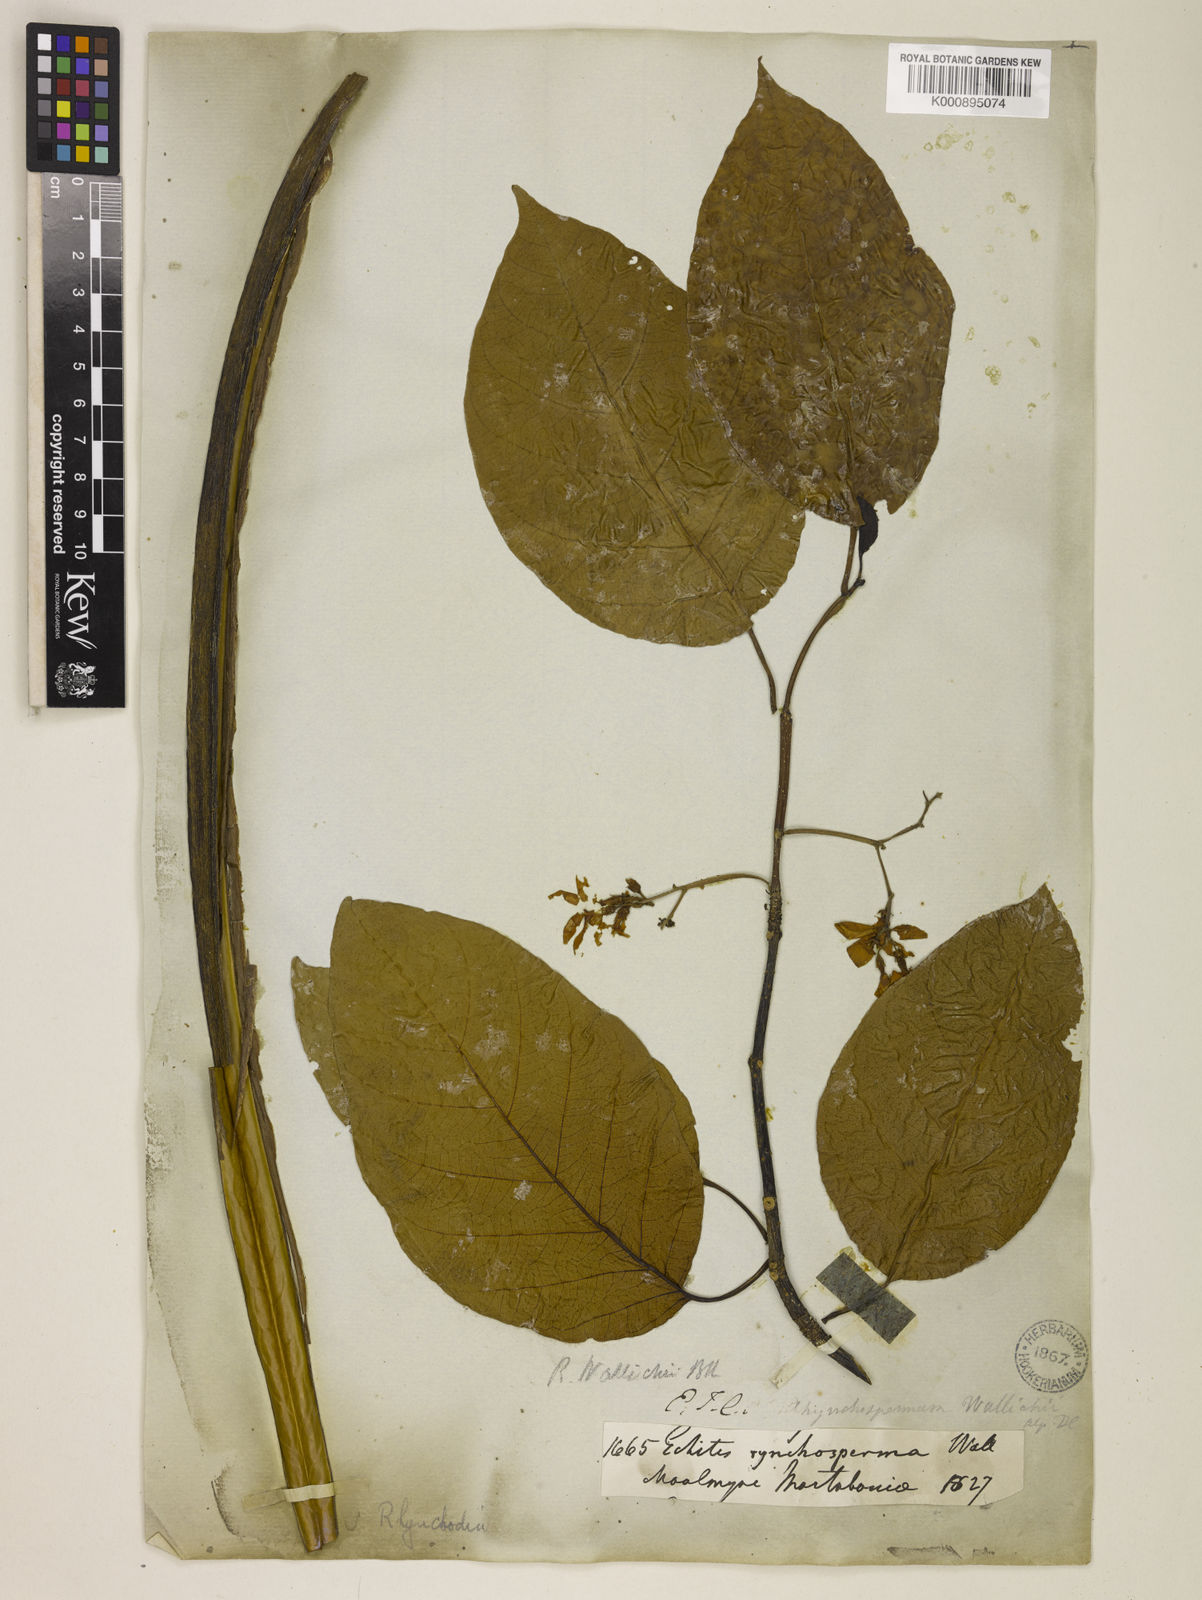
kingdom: Plantae
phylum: Tracheophyta
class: Magnoliopsida
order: Gentianales
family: Apocynaceae
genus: Chonemorpha
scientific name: Chonemorpha verrucosa
